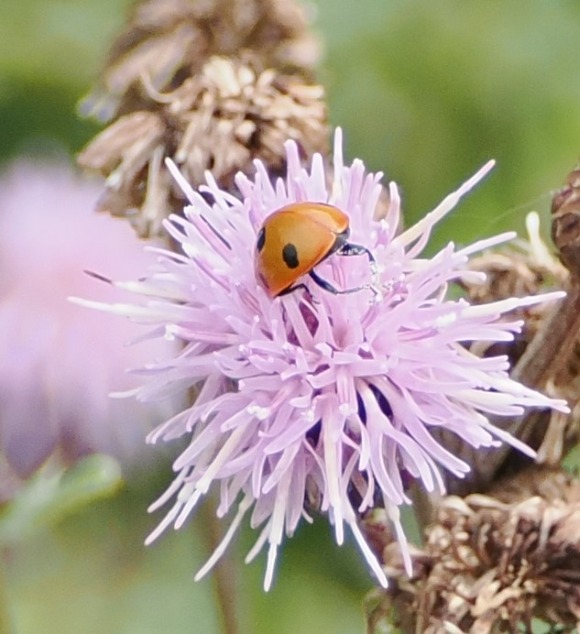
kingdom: Animalia
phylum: Arthropoda
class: Insecta
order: Coleoptera
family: Coccinellidae
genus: Coccinella
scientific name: Coccinella septempunctata
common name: Syvplettet mariehøne
